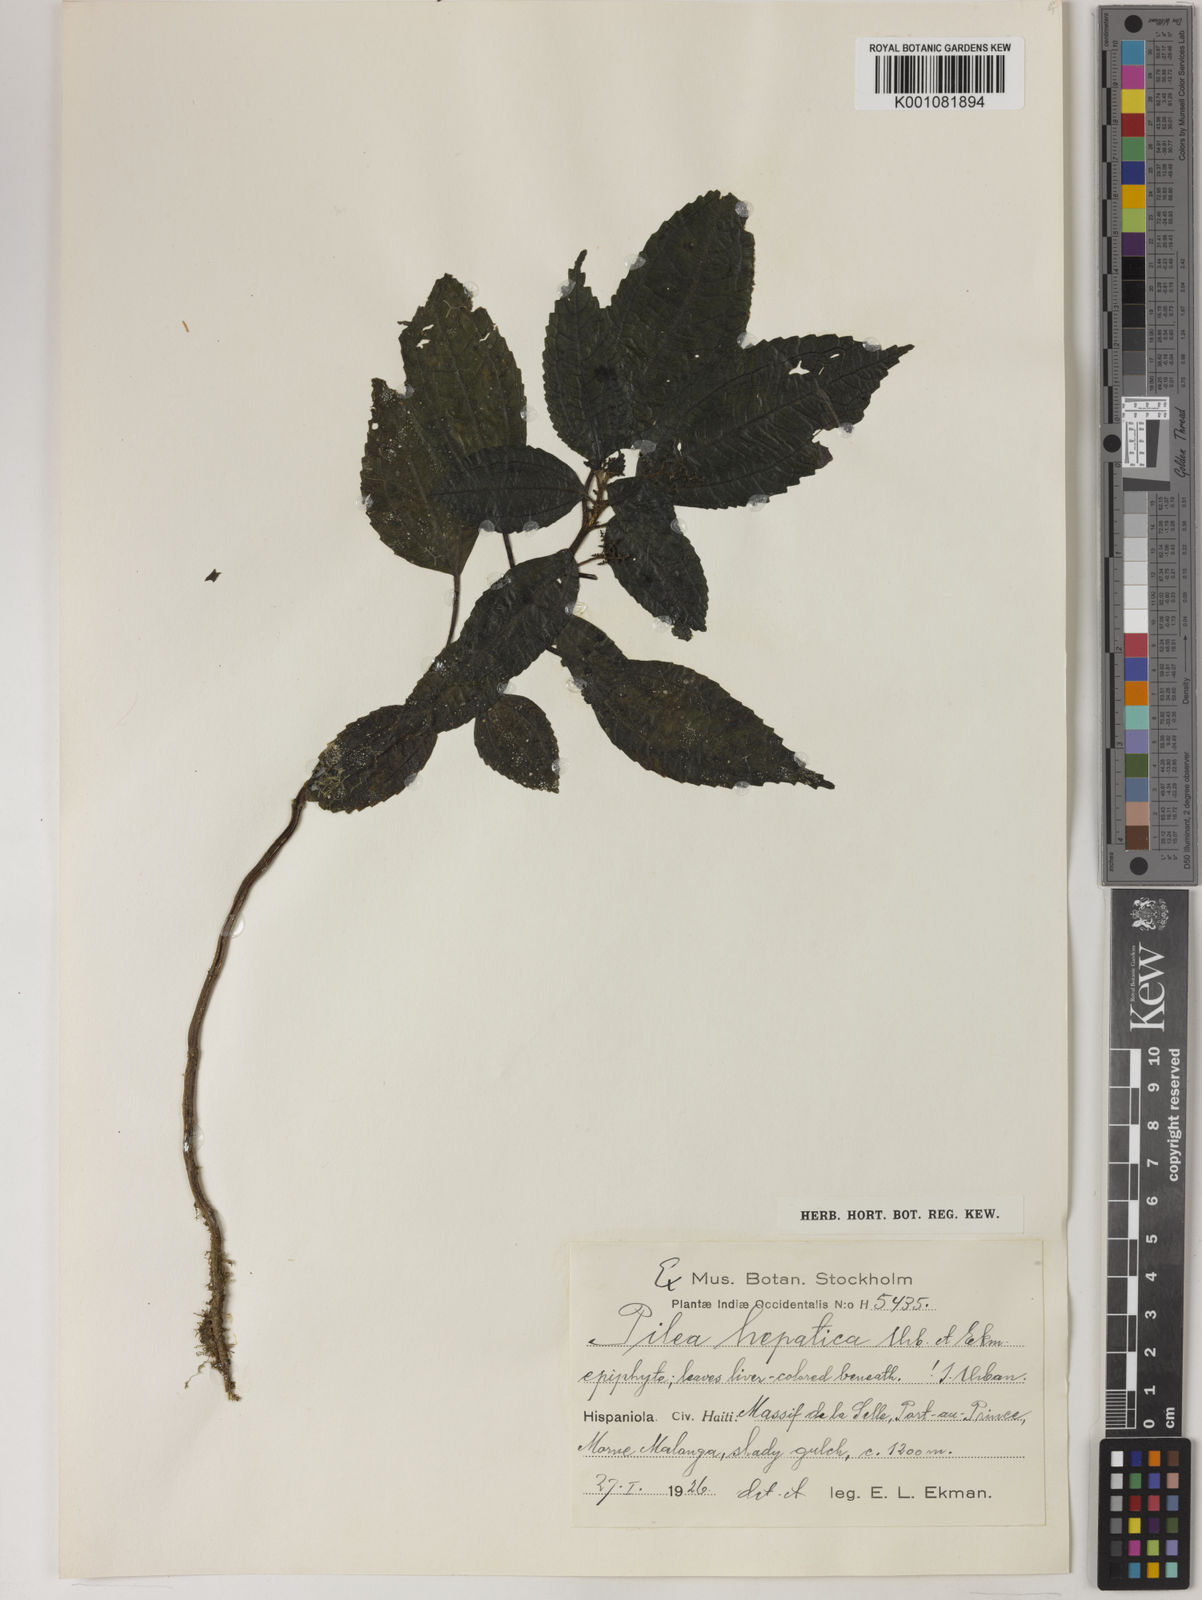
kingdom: Plantae
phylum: Tracheophyta
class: Magnoliopsida
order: Rosales
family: Urticaceae
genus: Pilea
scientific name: Pilea hepatica
